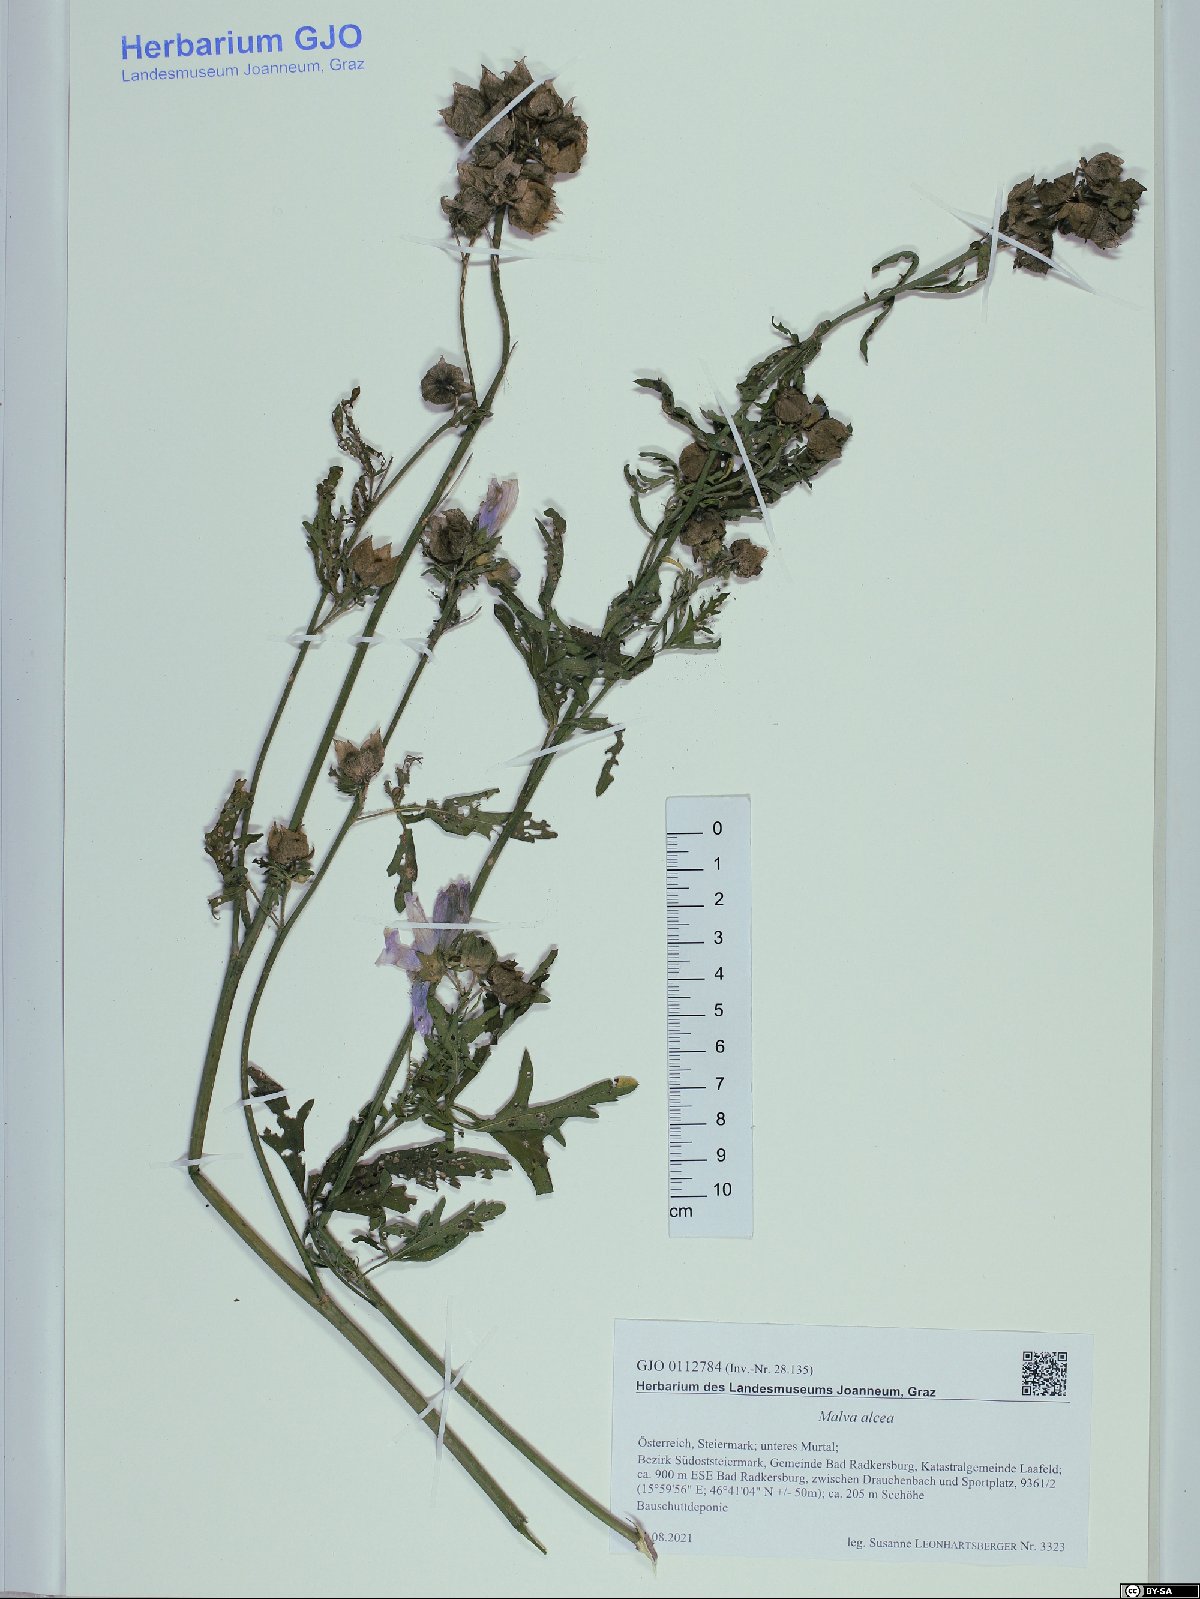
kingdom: Plantae
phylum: Tracheophyta
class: Magnoliopsida
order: Malvales
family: Malvaceae
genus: Malva
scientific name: Malva alcea
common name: Greater musk-mallow
